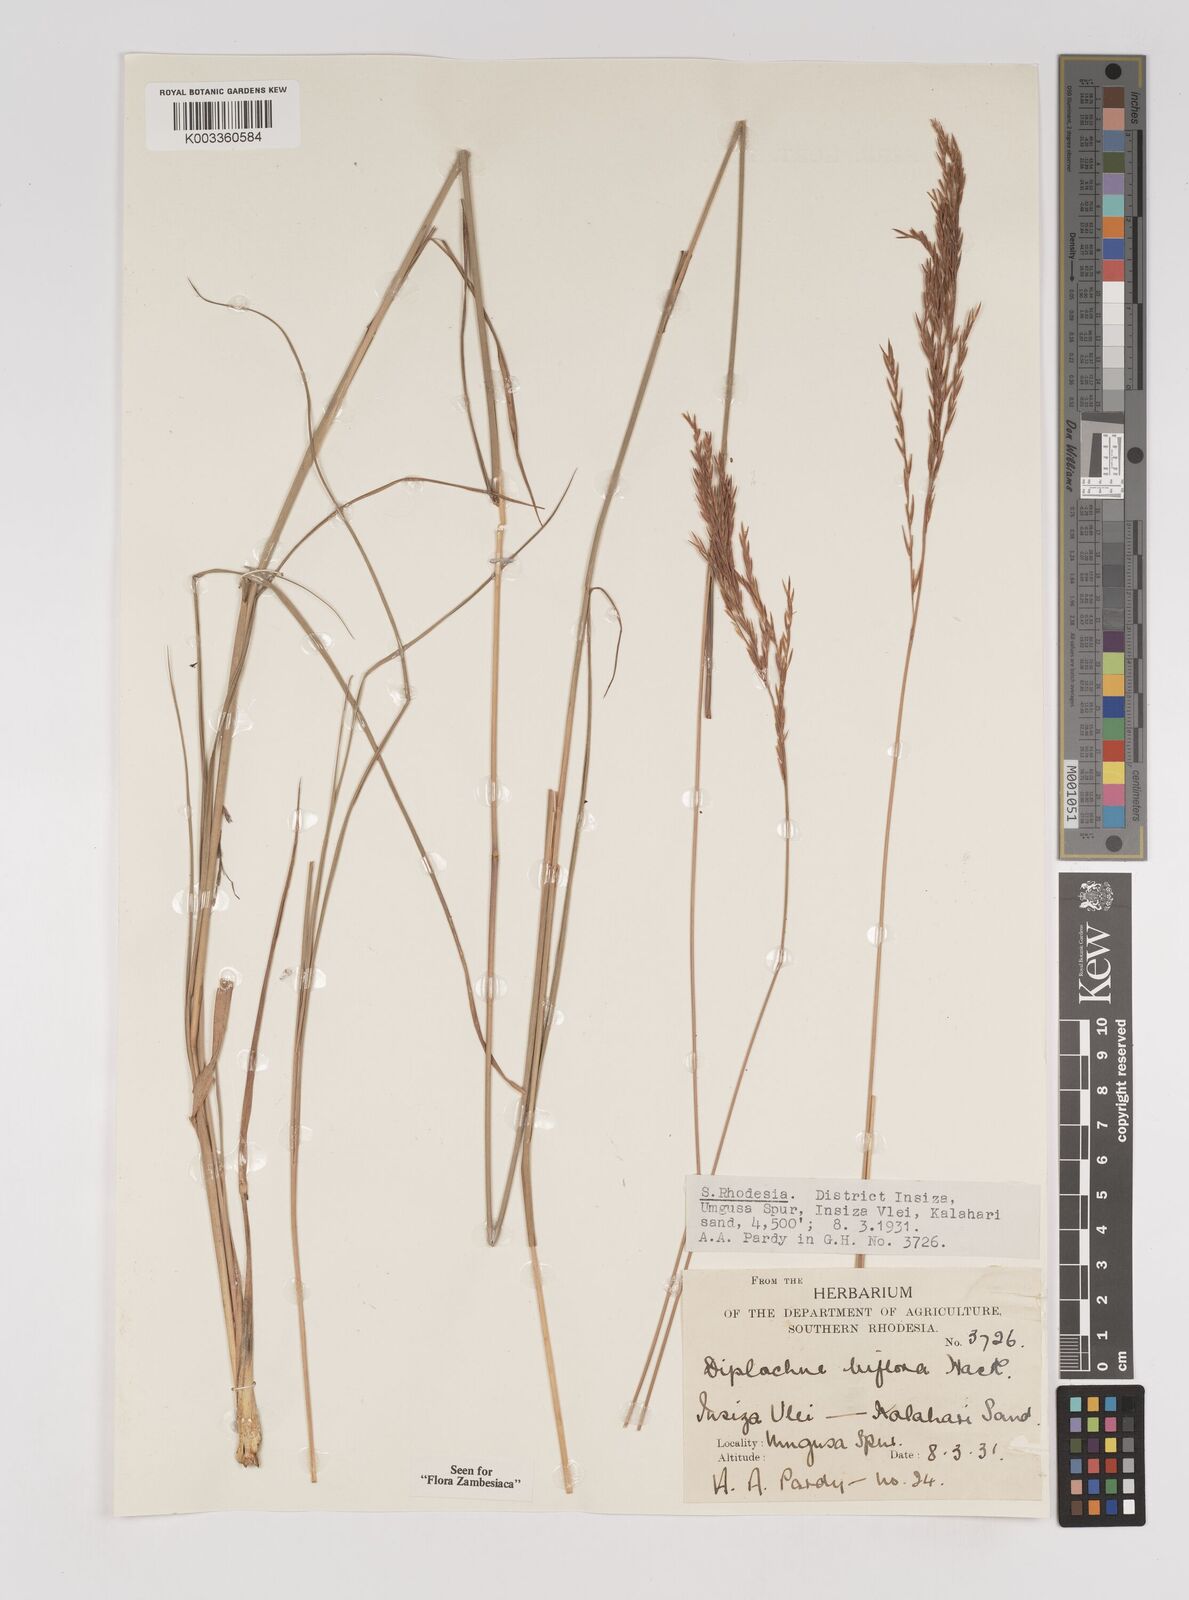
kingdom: Plantae
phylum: Tracheophyta
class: Liliopsida
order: Poales
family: Poaceae
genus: Bewsia
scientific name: Bewsia biflora
